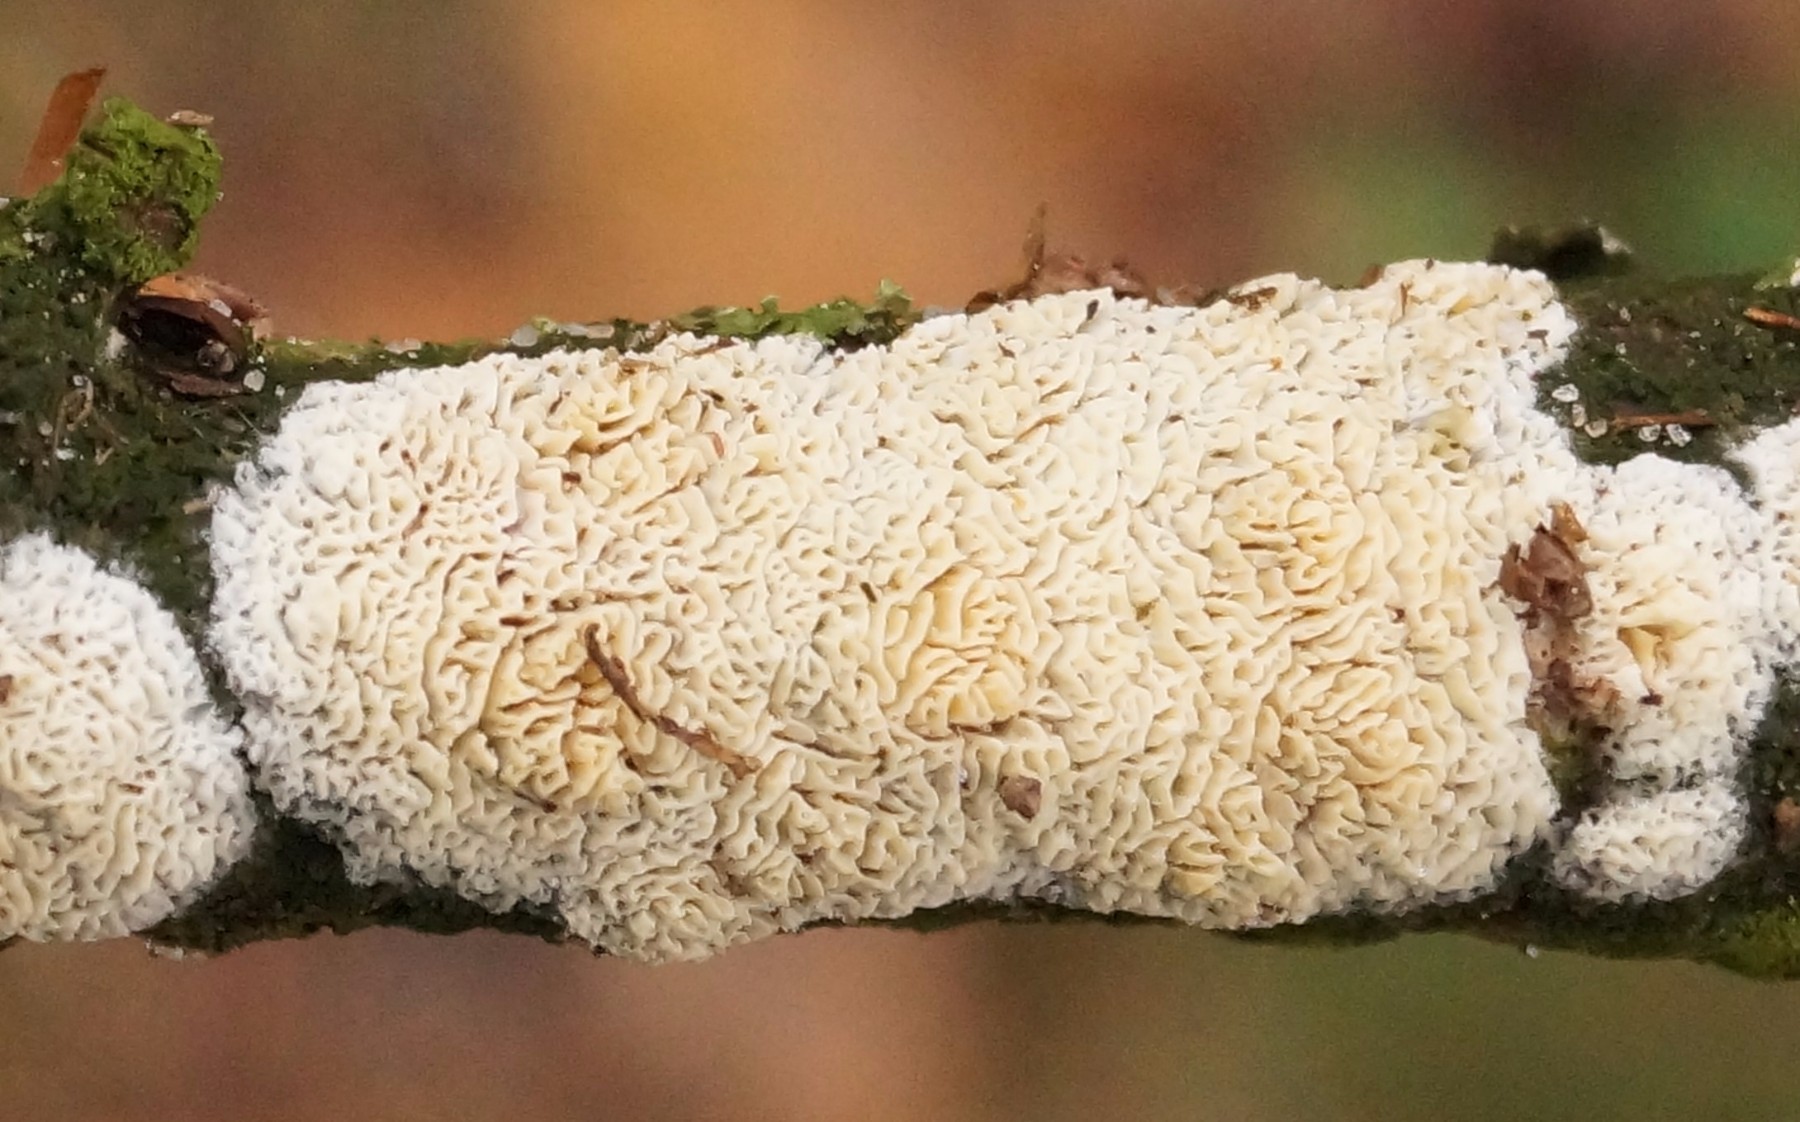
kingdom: Fungi
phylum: Basidiomycota
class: Agaricomycetes
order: Hymenochaetales
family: Schizoporaceae
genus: Xylodon
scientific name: Xylodon
